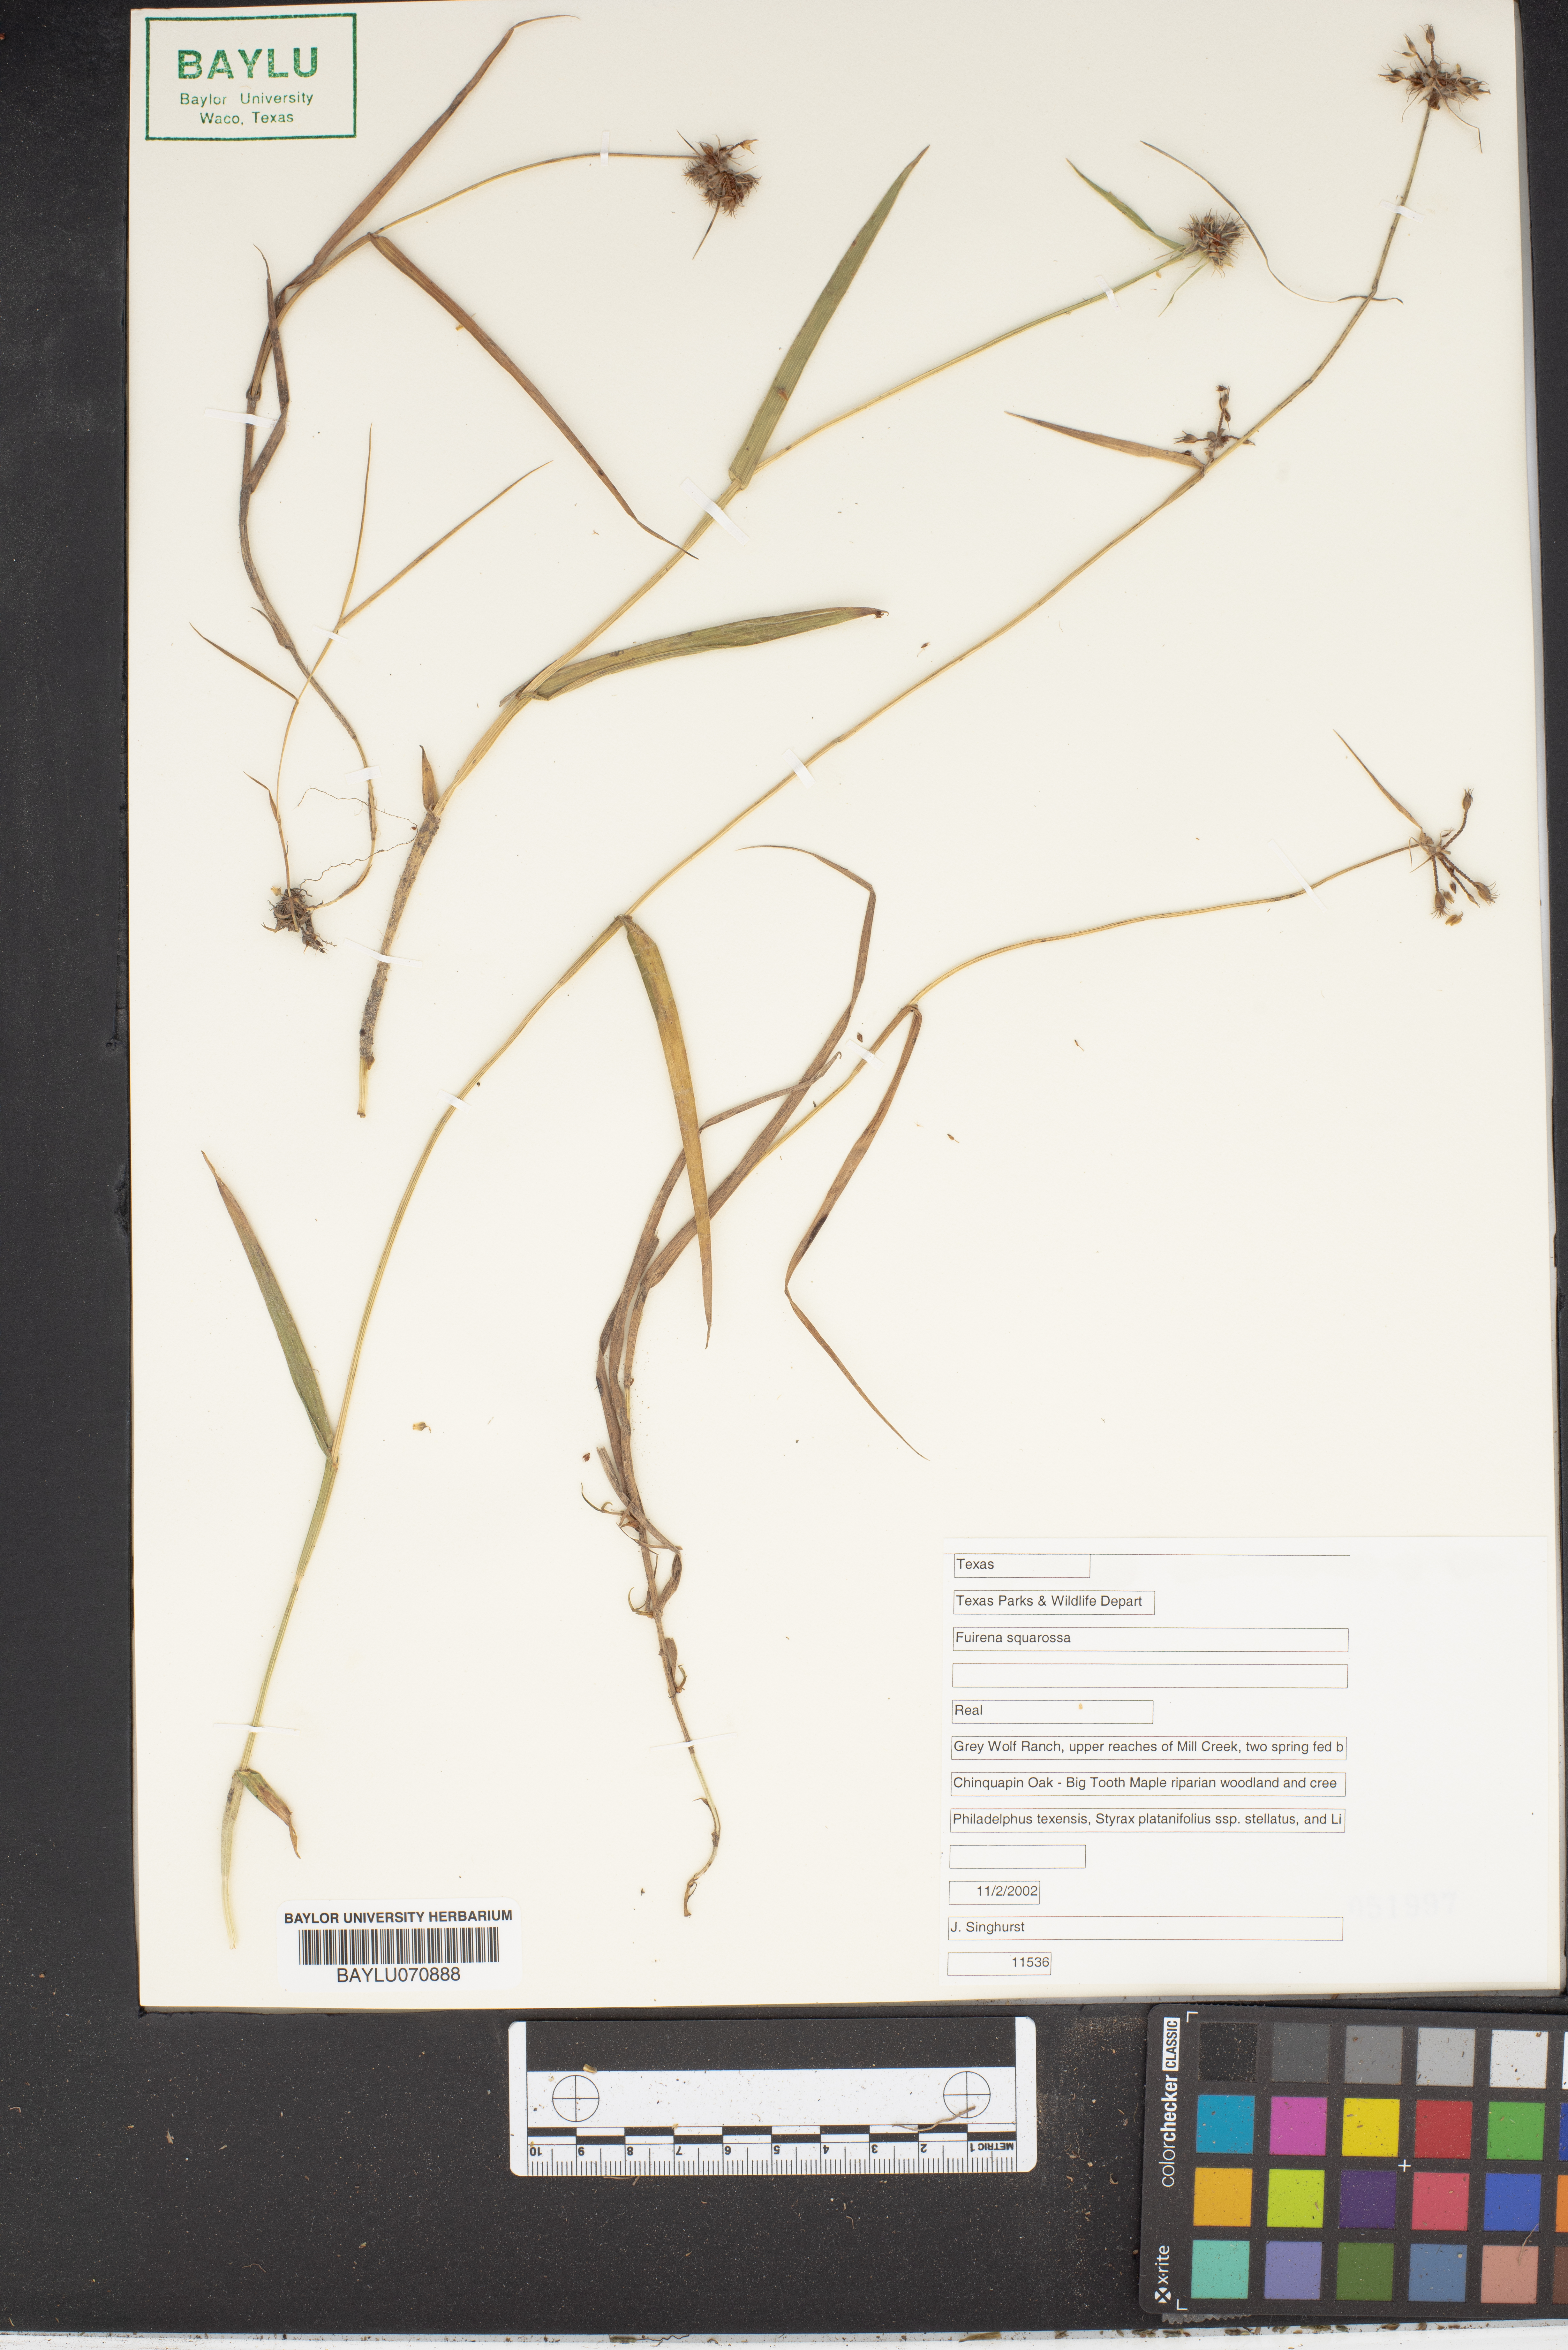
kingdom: Plantae
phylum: Tracheophyta
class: Liliopsida
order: Poales
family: Cyperaceae
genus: Fuirena
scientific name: Fuirena squarrosa
